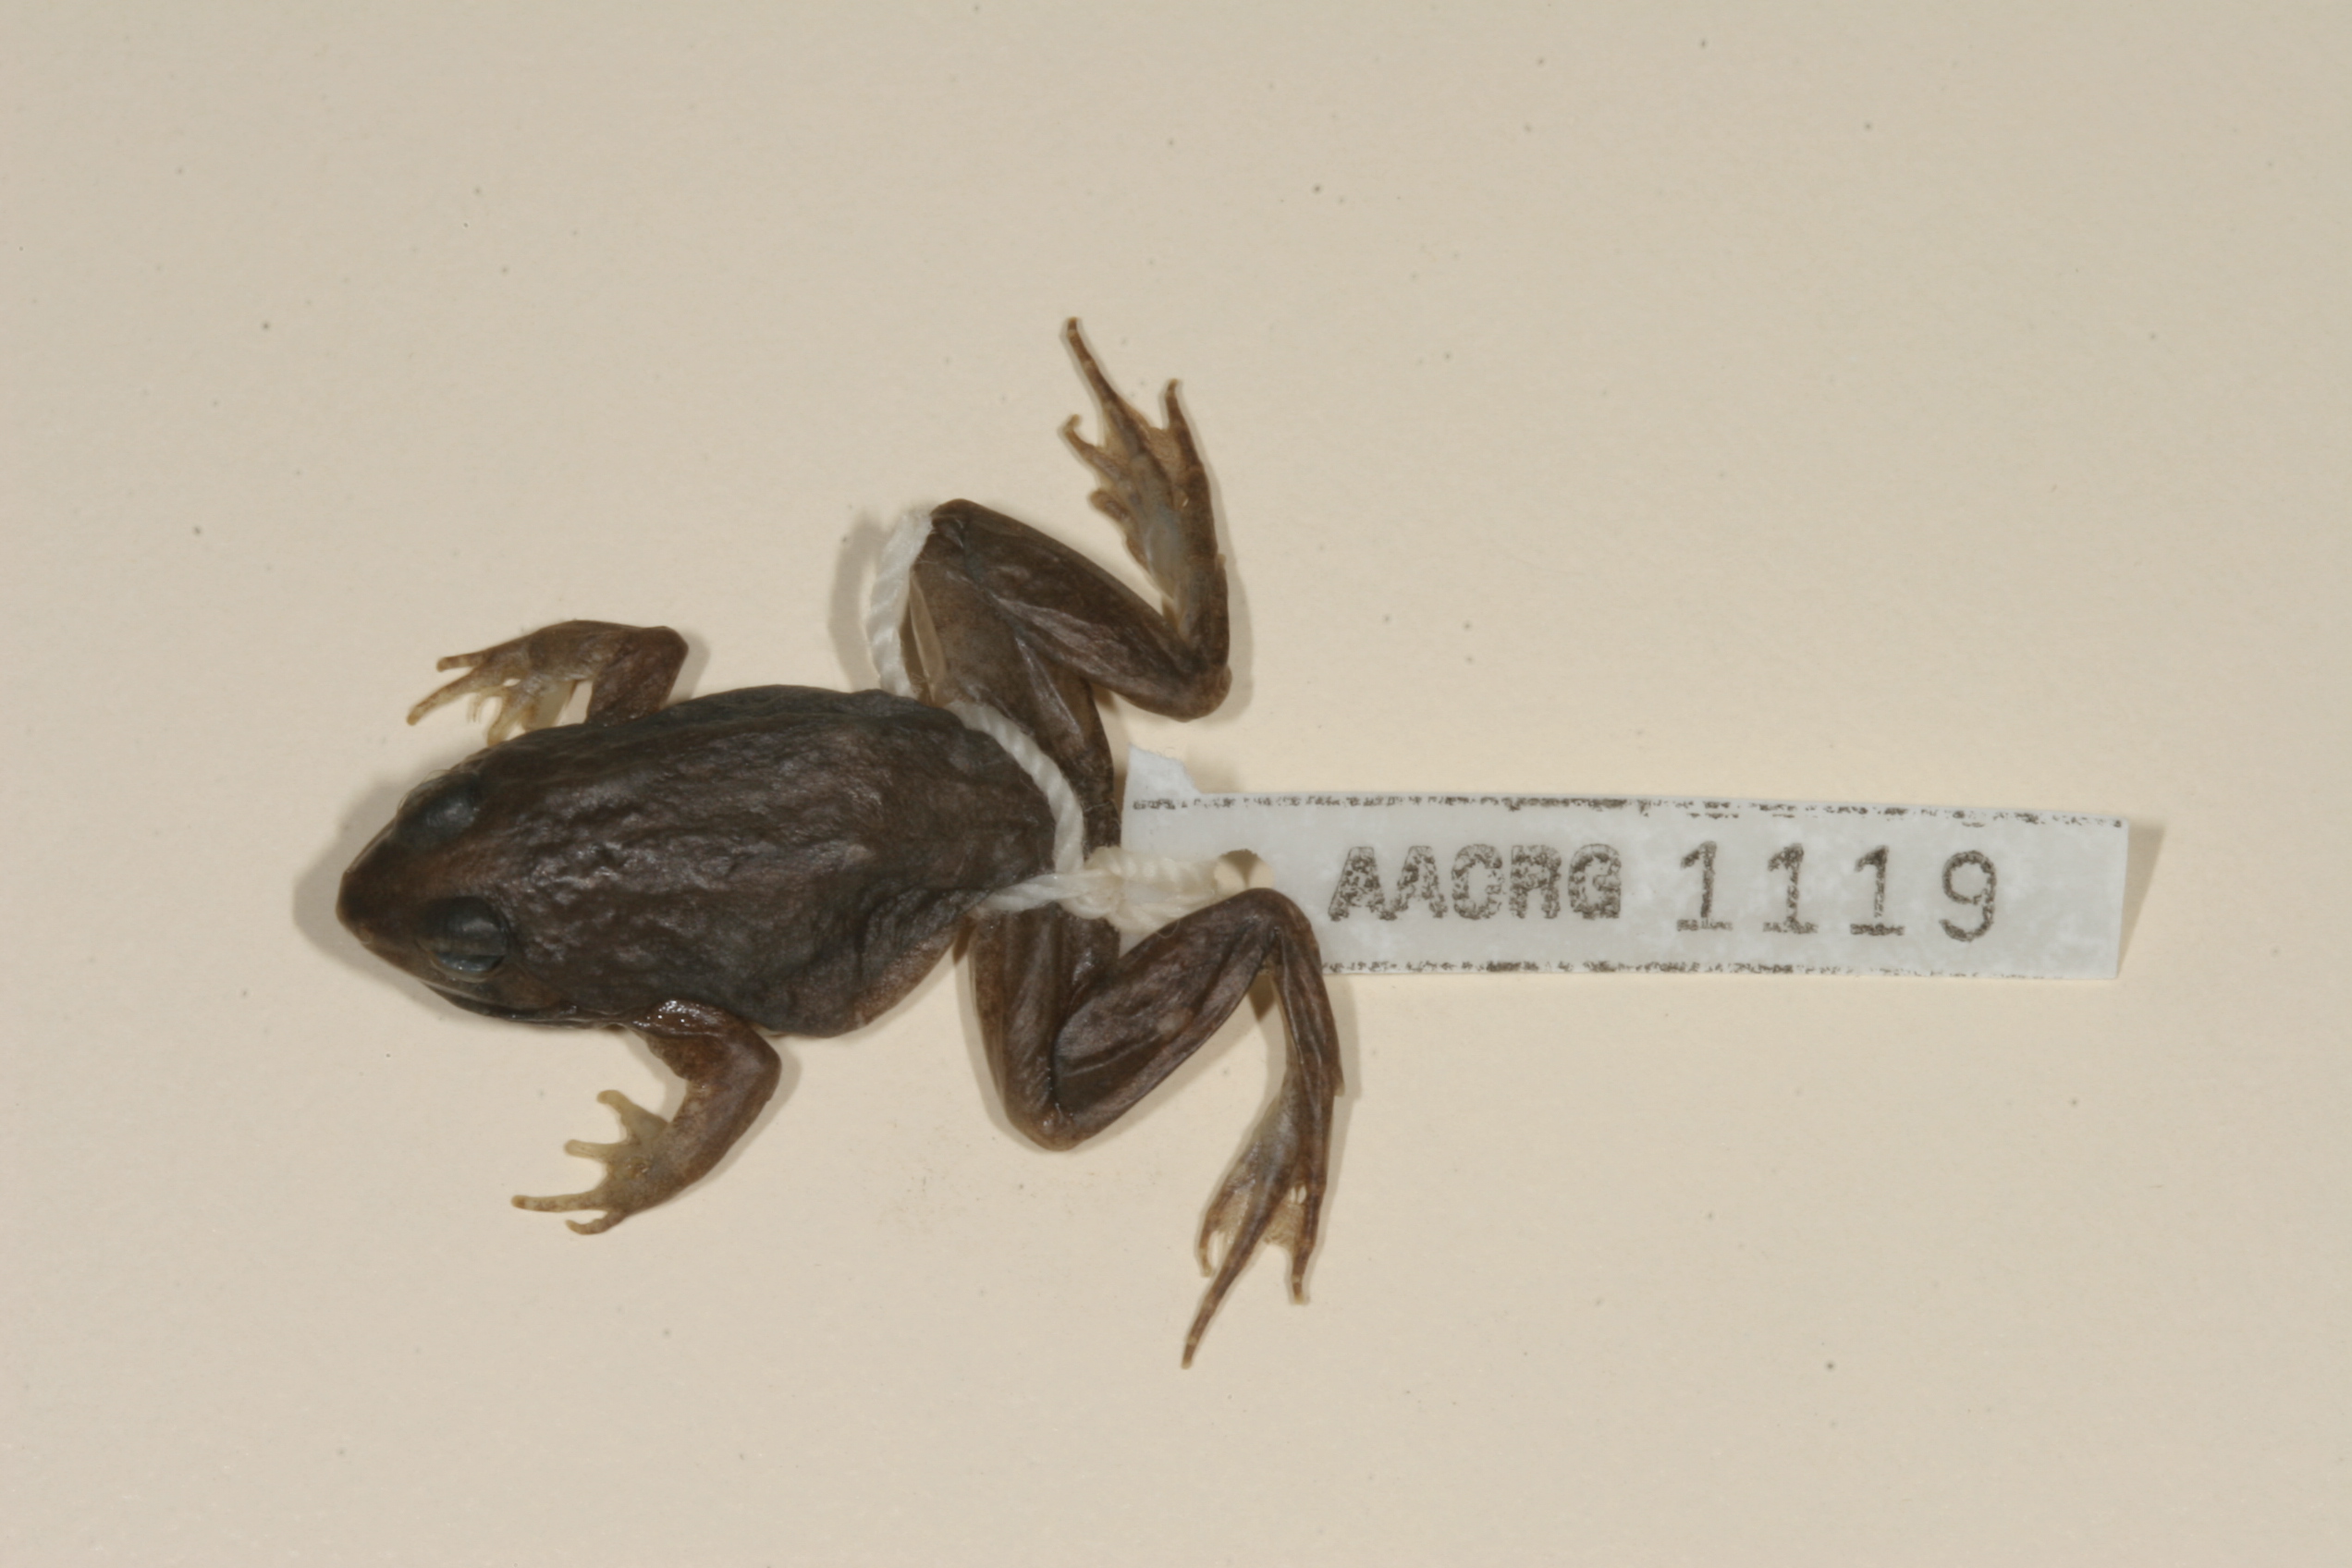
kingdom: Animalia
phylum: Chordata
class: Amphibia
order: Anura
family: Phrynobatrachidae
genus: Phrynobatrachus
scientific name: Phrynobatrachus natalensis
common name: Snoring puddle frog
